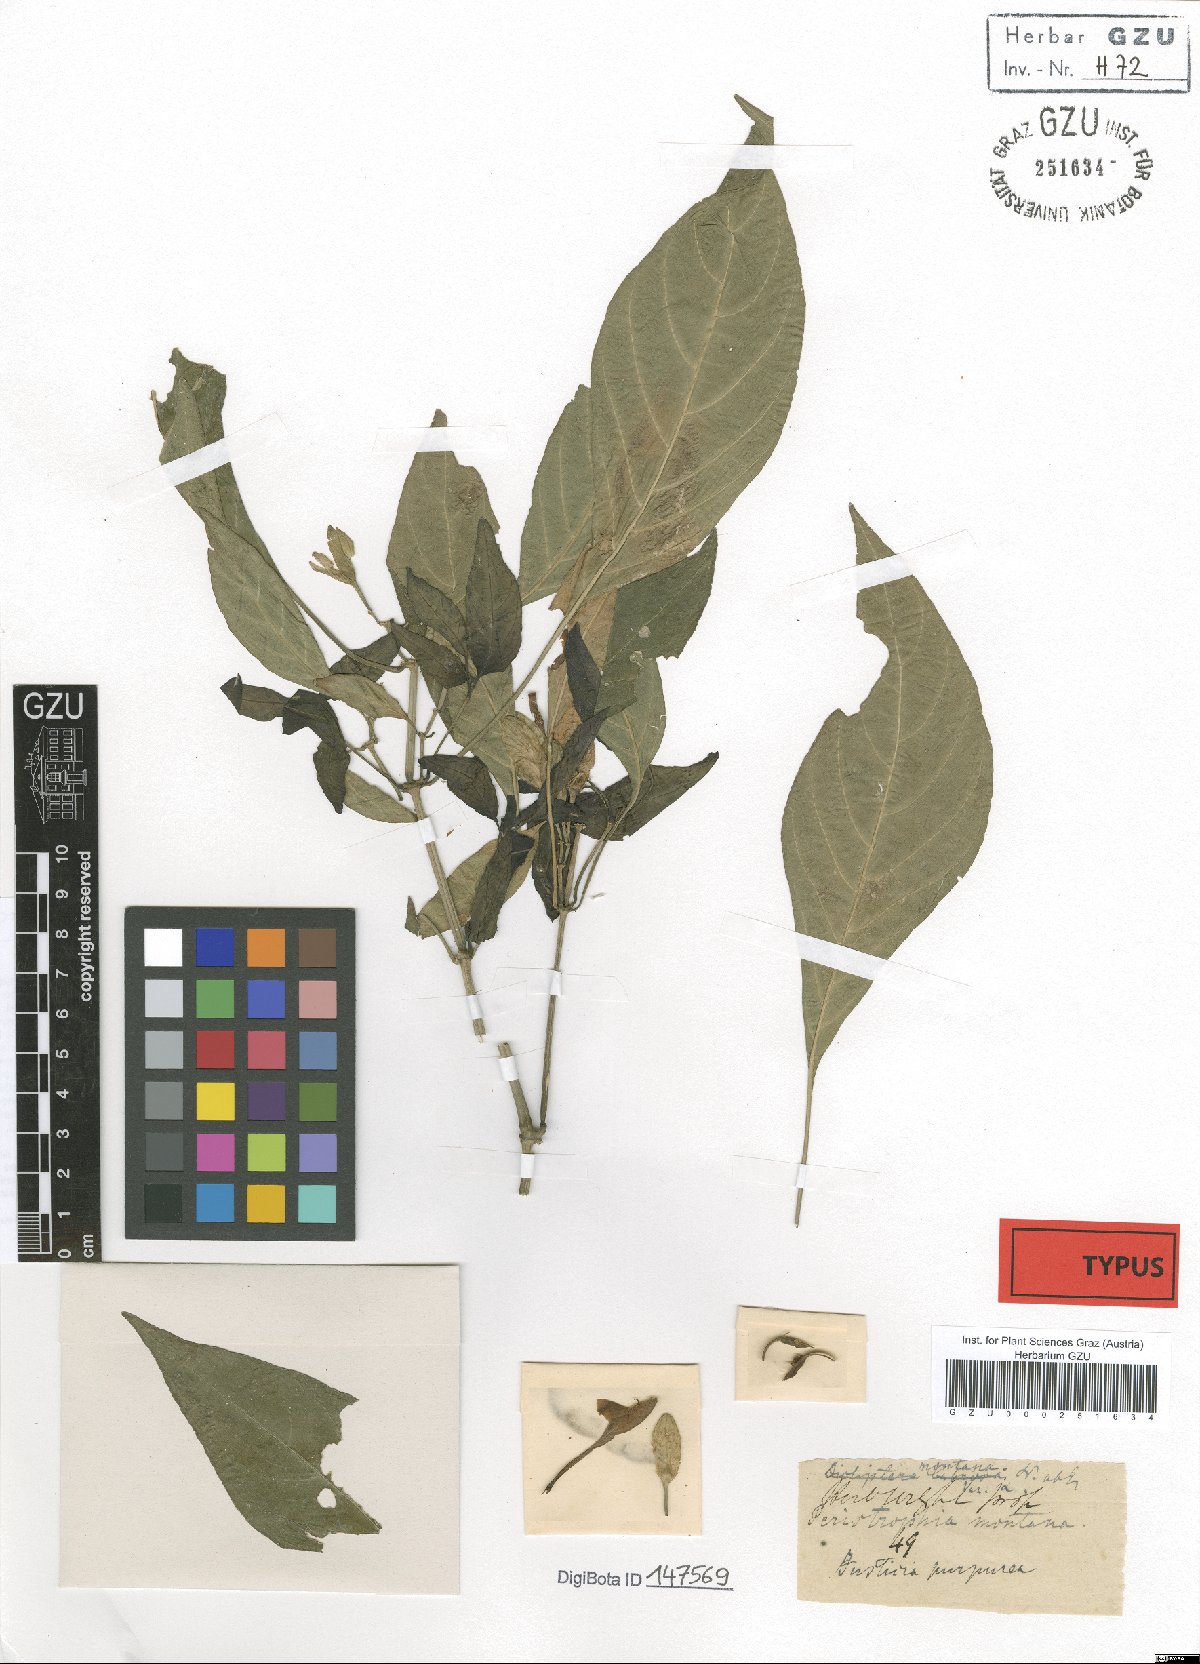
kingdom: Plantae
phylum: Tracheophyta
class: Magnoliopsida
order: Lamiales
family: Acanthaceae
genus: Dicliptera
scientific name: Dicliptera baphica
